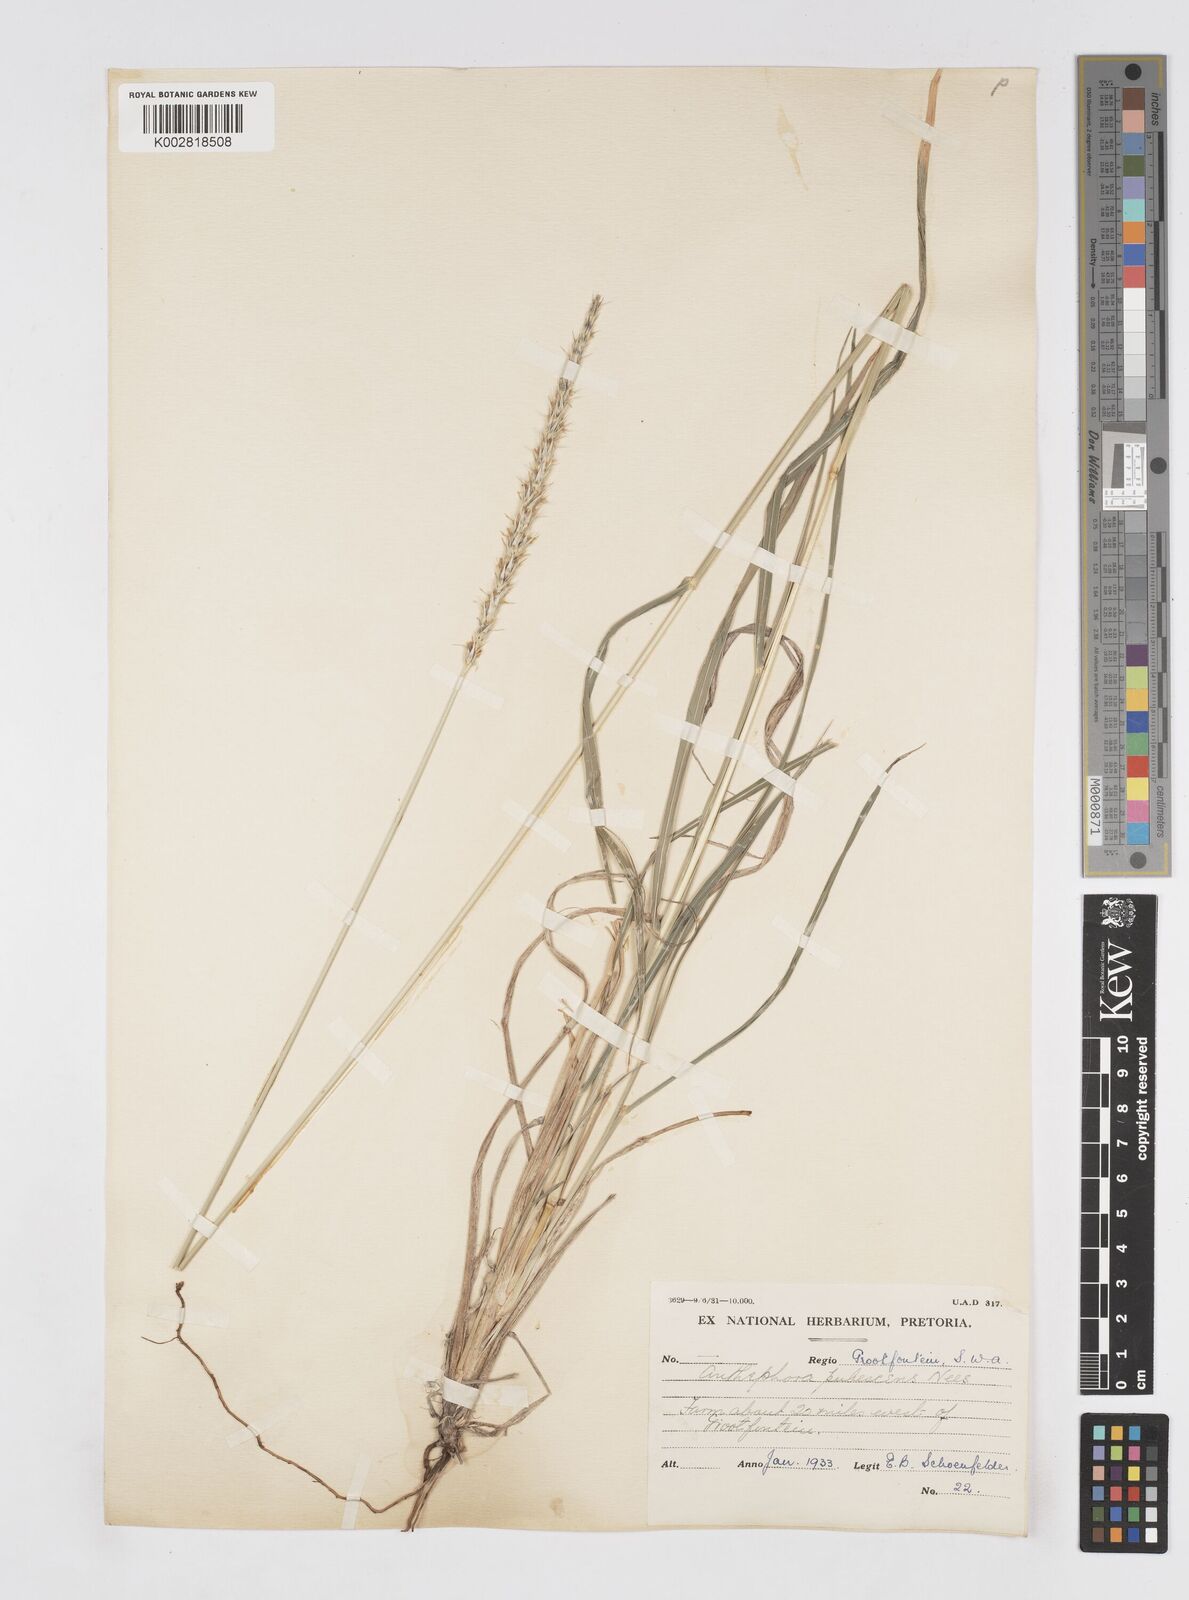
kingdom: Plantae
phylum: Tracheophyta
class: Liliopsida
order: Poales
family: Poaceae
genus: Anthephora
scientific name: Anthephora pubescens
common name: Wool grass
